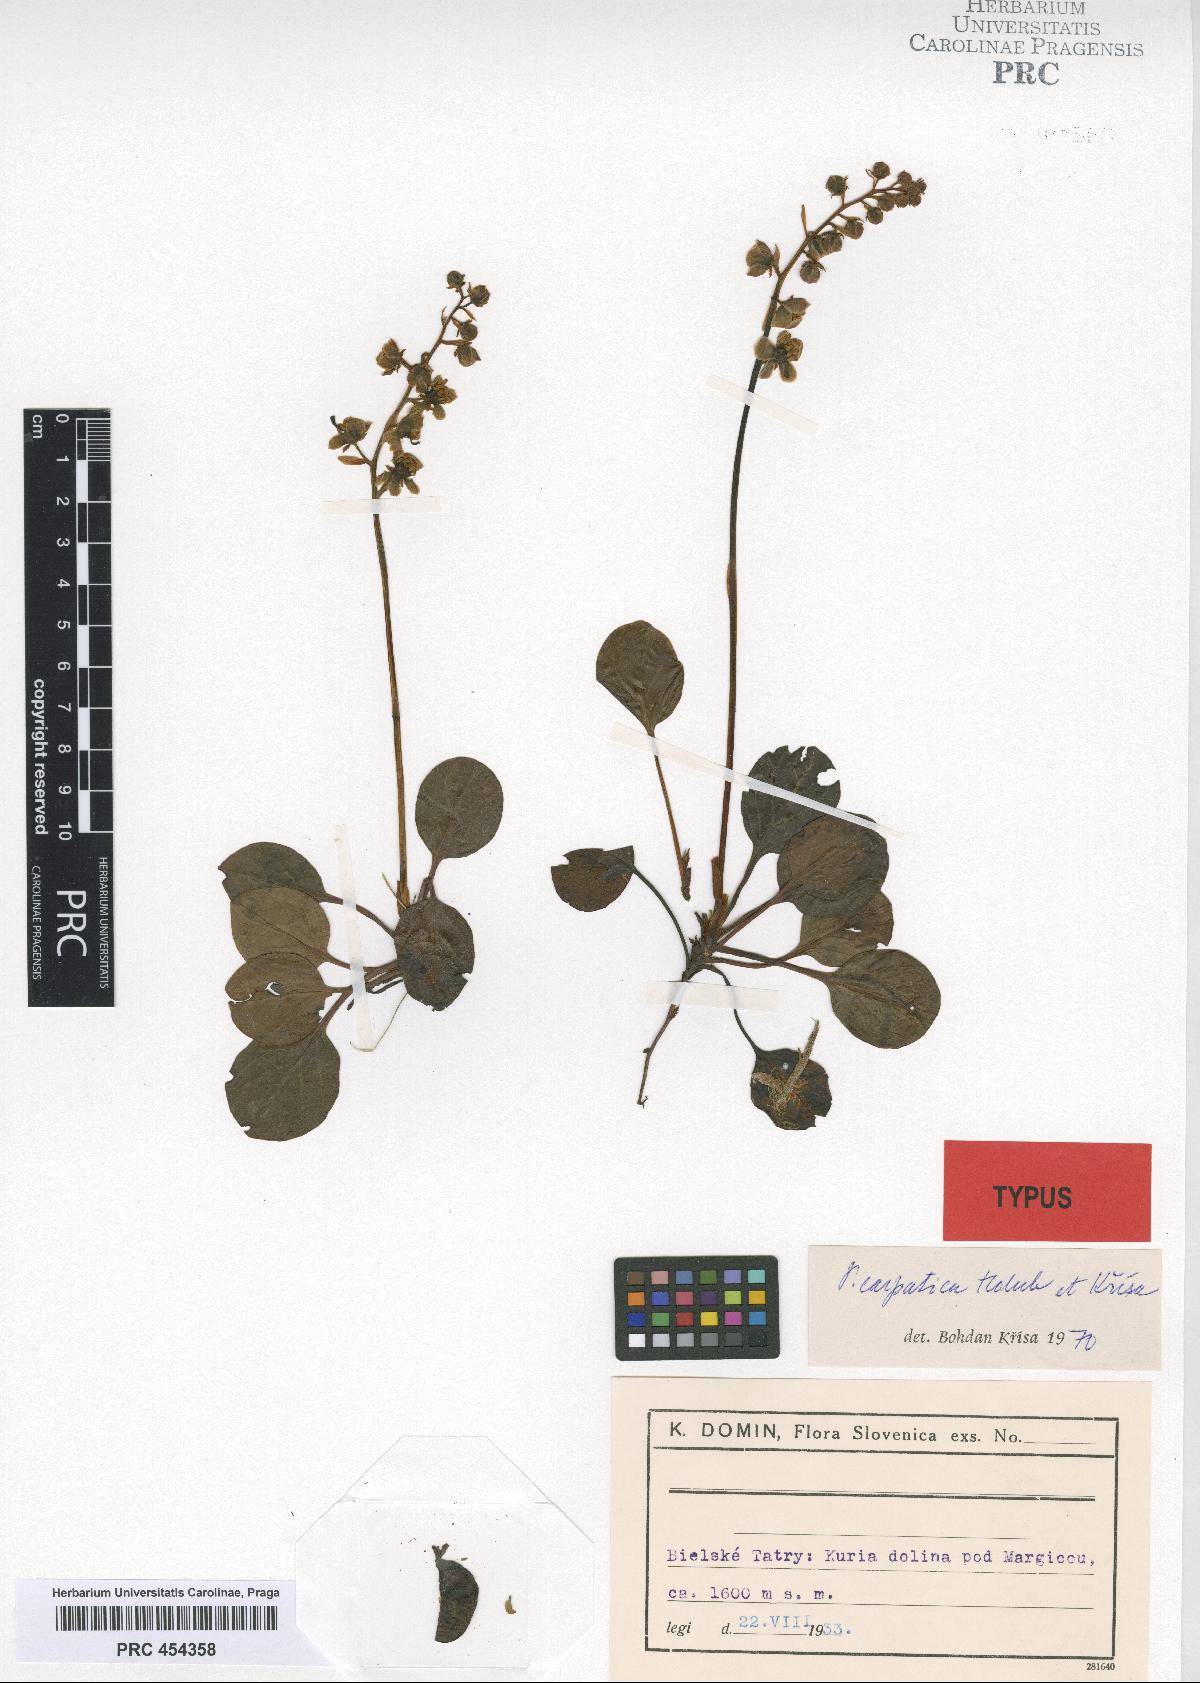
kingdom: Plantae
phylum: Tracheophyta
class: Magnoliopsida
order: Ericales
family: Ericaceae
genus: Pyrola
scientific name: Pyrola carpatica
